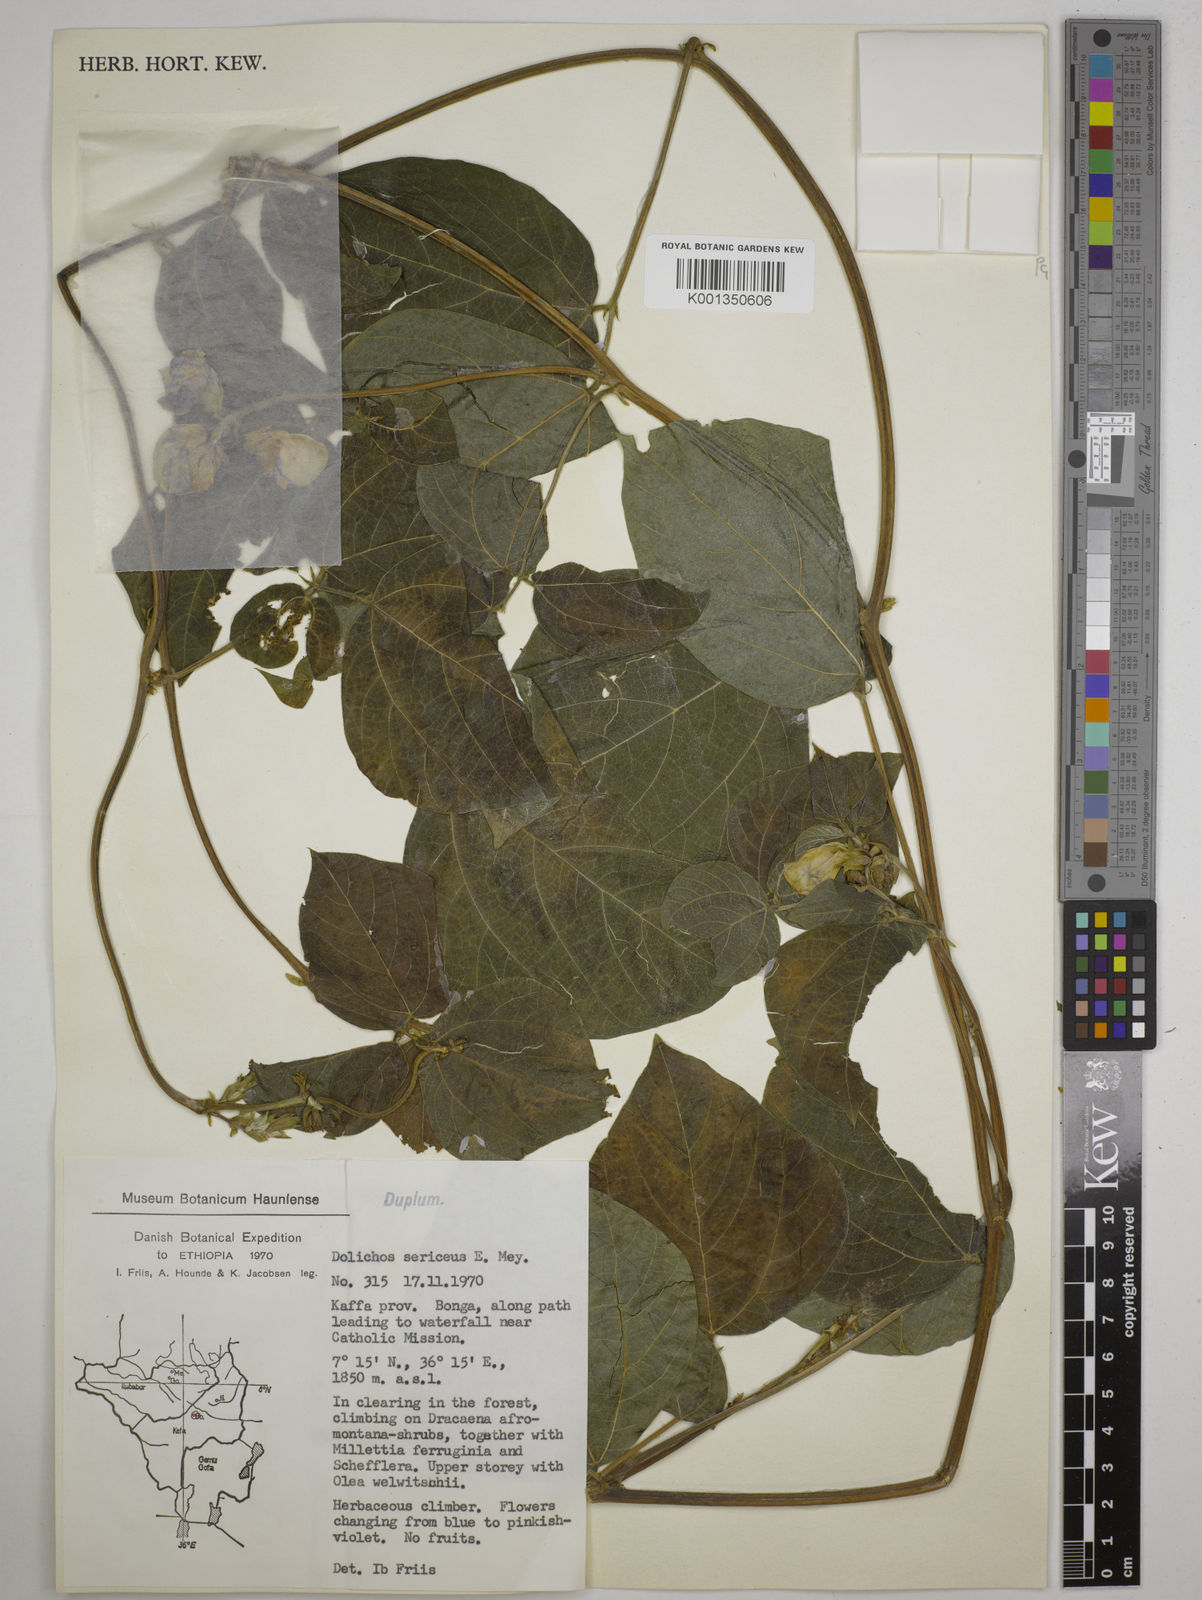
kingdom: Plantae
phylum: Tracheophyta
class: Magnoliopsida
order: Fabales
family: Fabaceae
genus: Dolichos
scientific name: Dolichos
